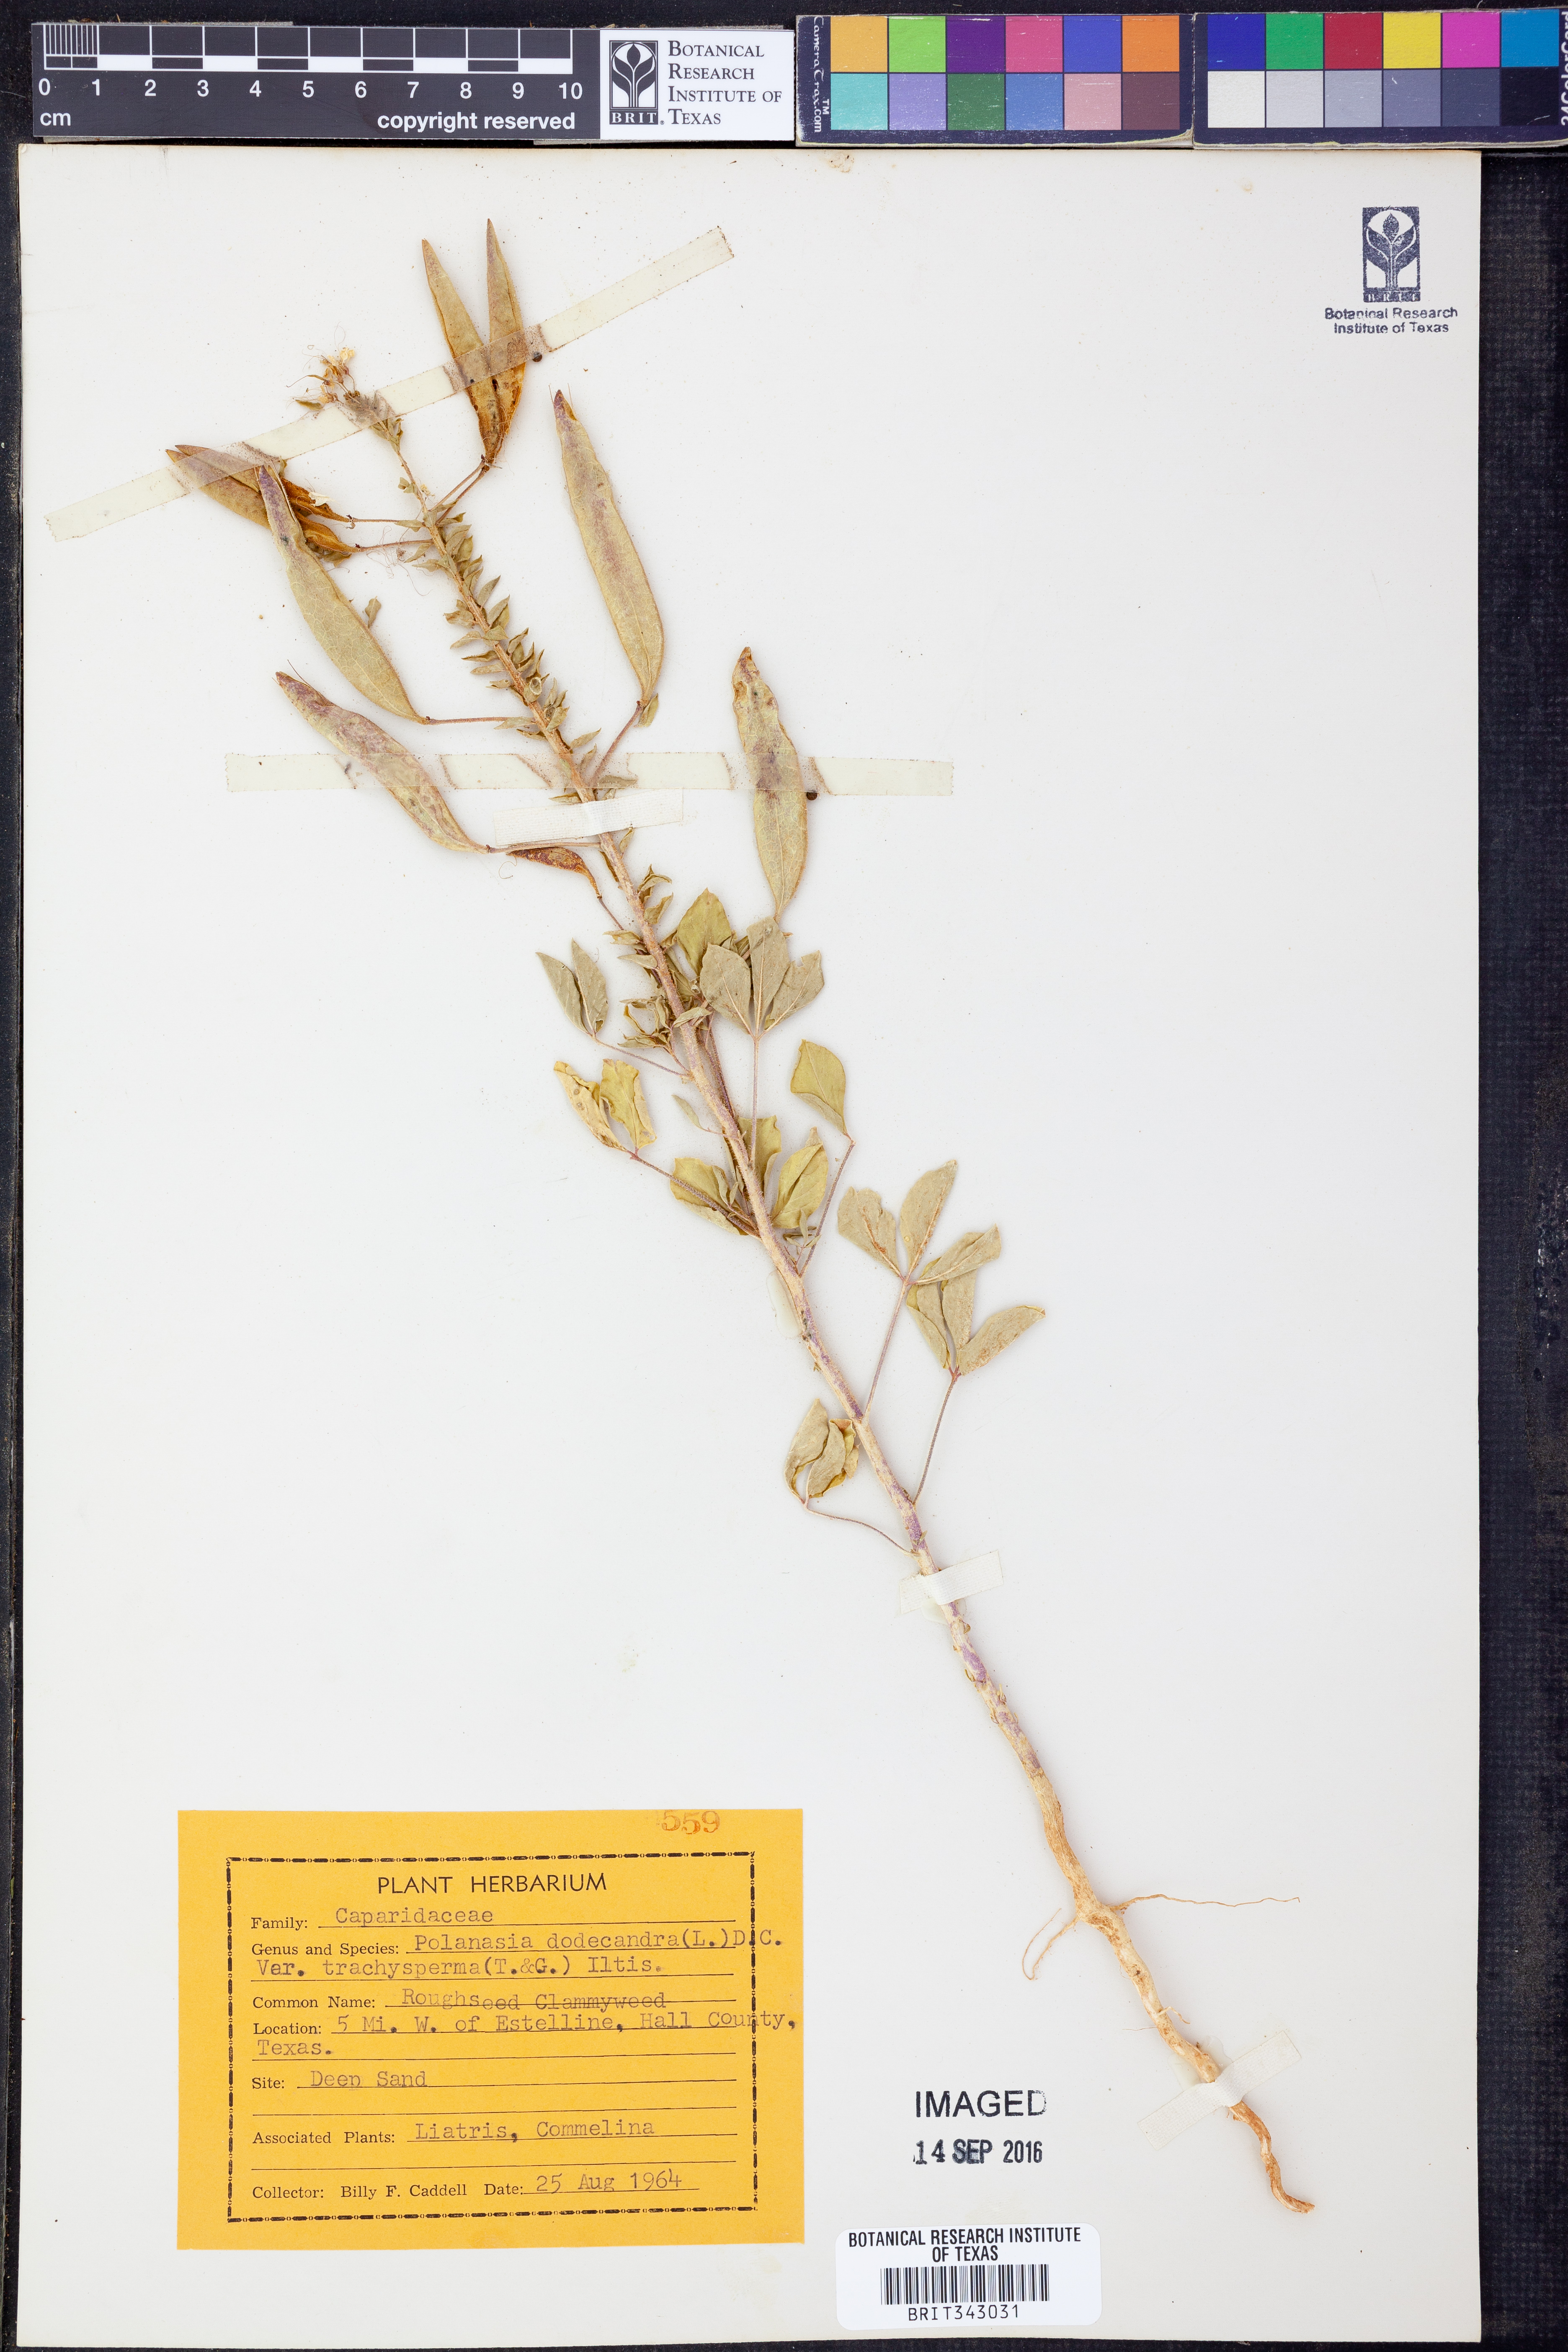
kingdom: Plantae
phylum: Tracheophyta
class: Magnoliopsida
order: Brassicales
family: Cleomaceae
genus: Polanisia
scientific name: Polanisia trachysperma
